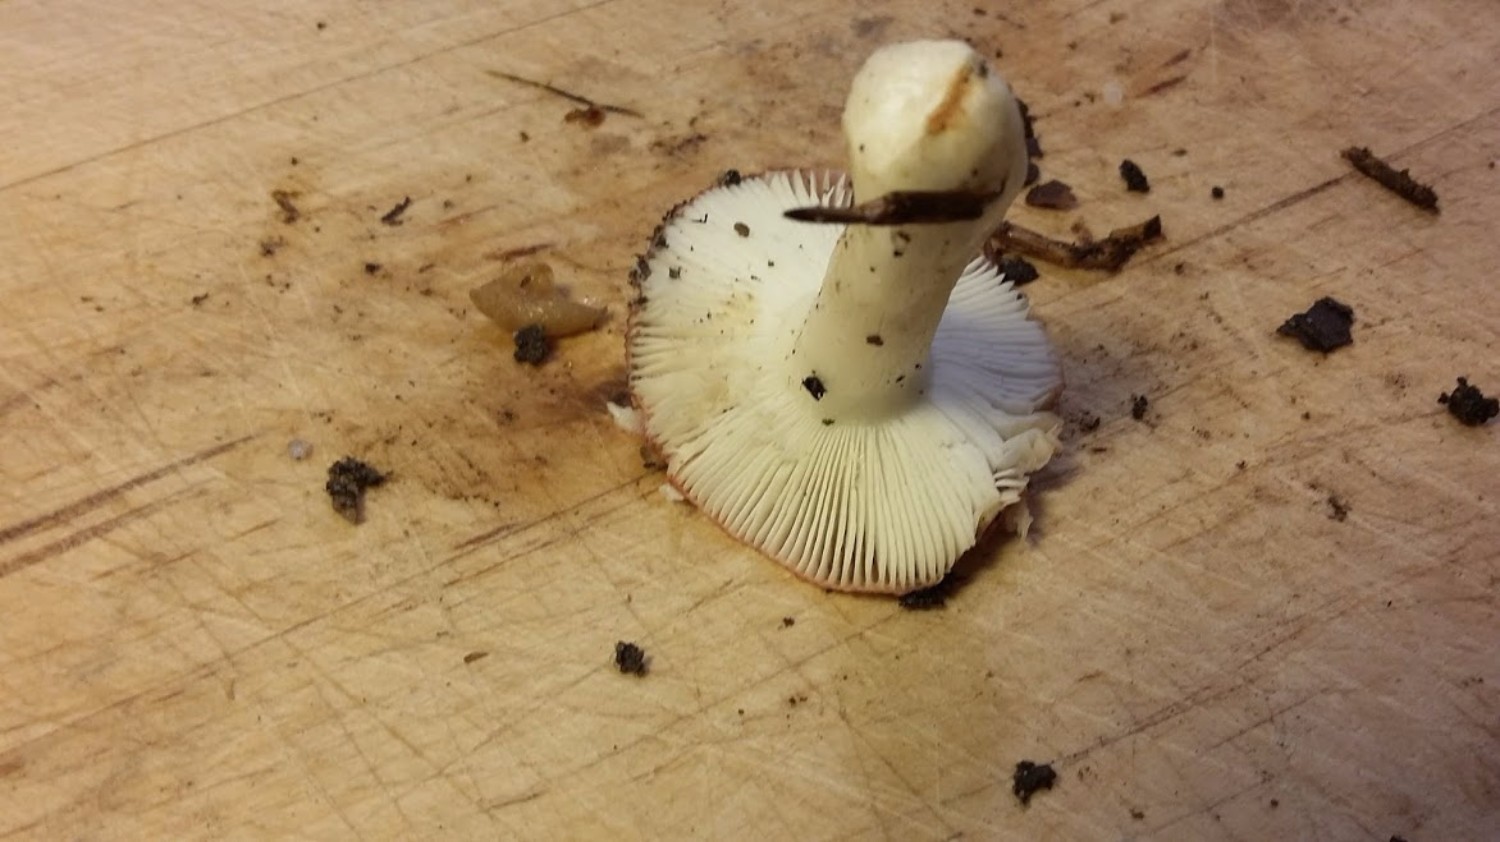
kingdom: Fungi
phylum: Basidiomycota
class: Agaricomycetes
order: Russulales
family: Russulaceae
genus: Russula
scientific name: Russula emetica
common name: stor gift-skørhat
